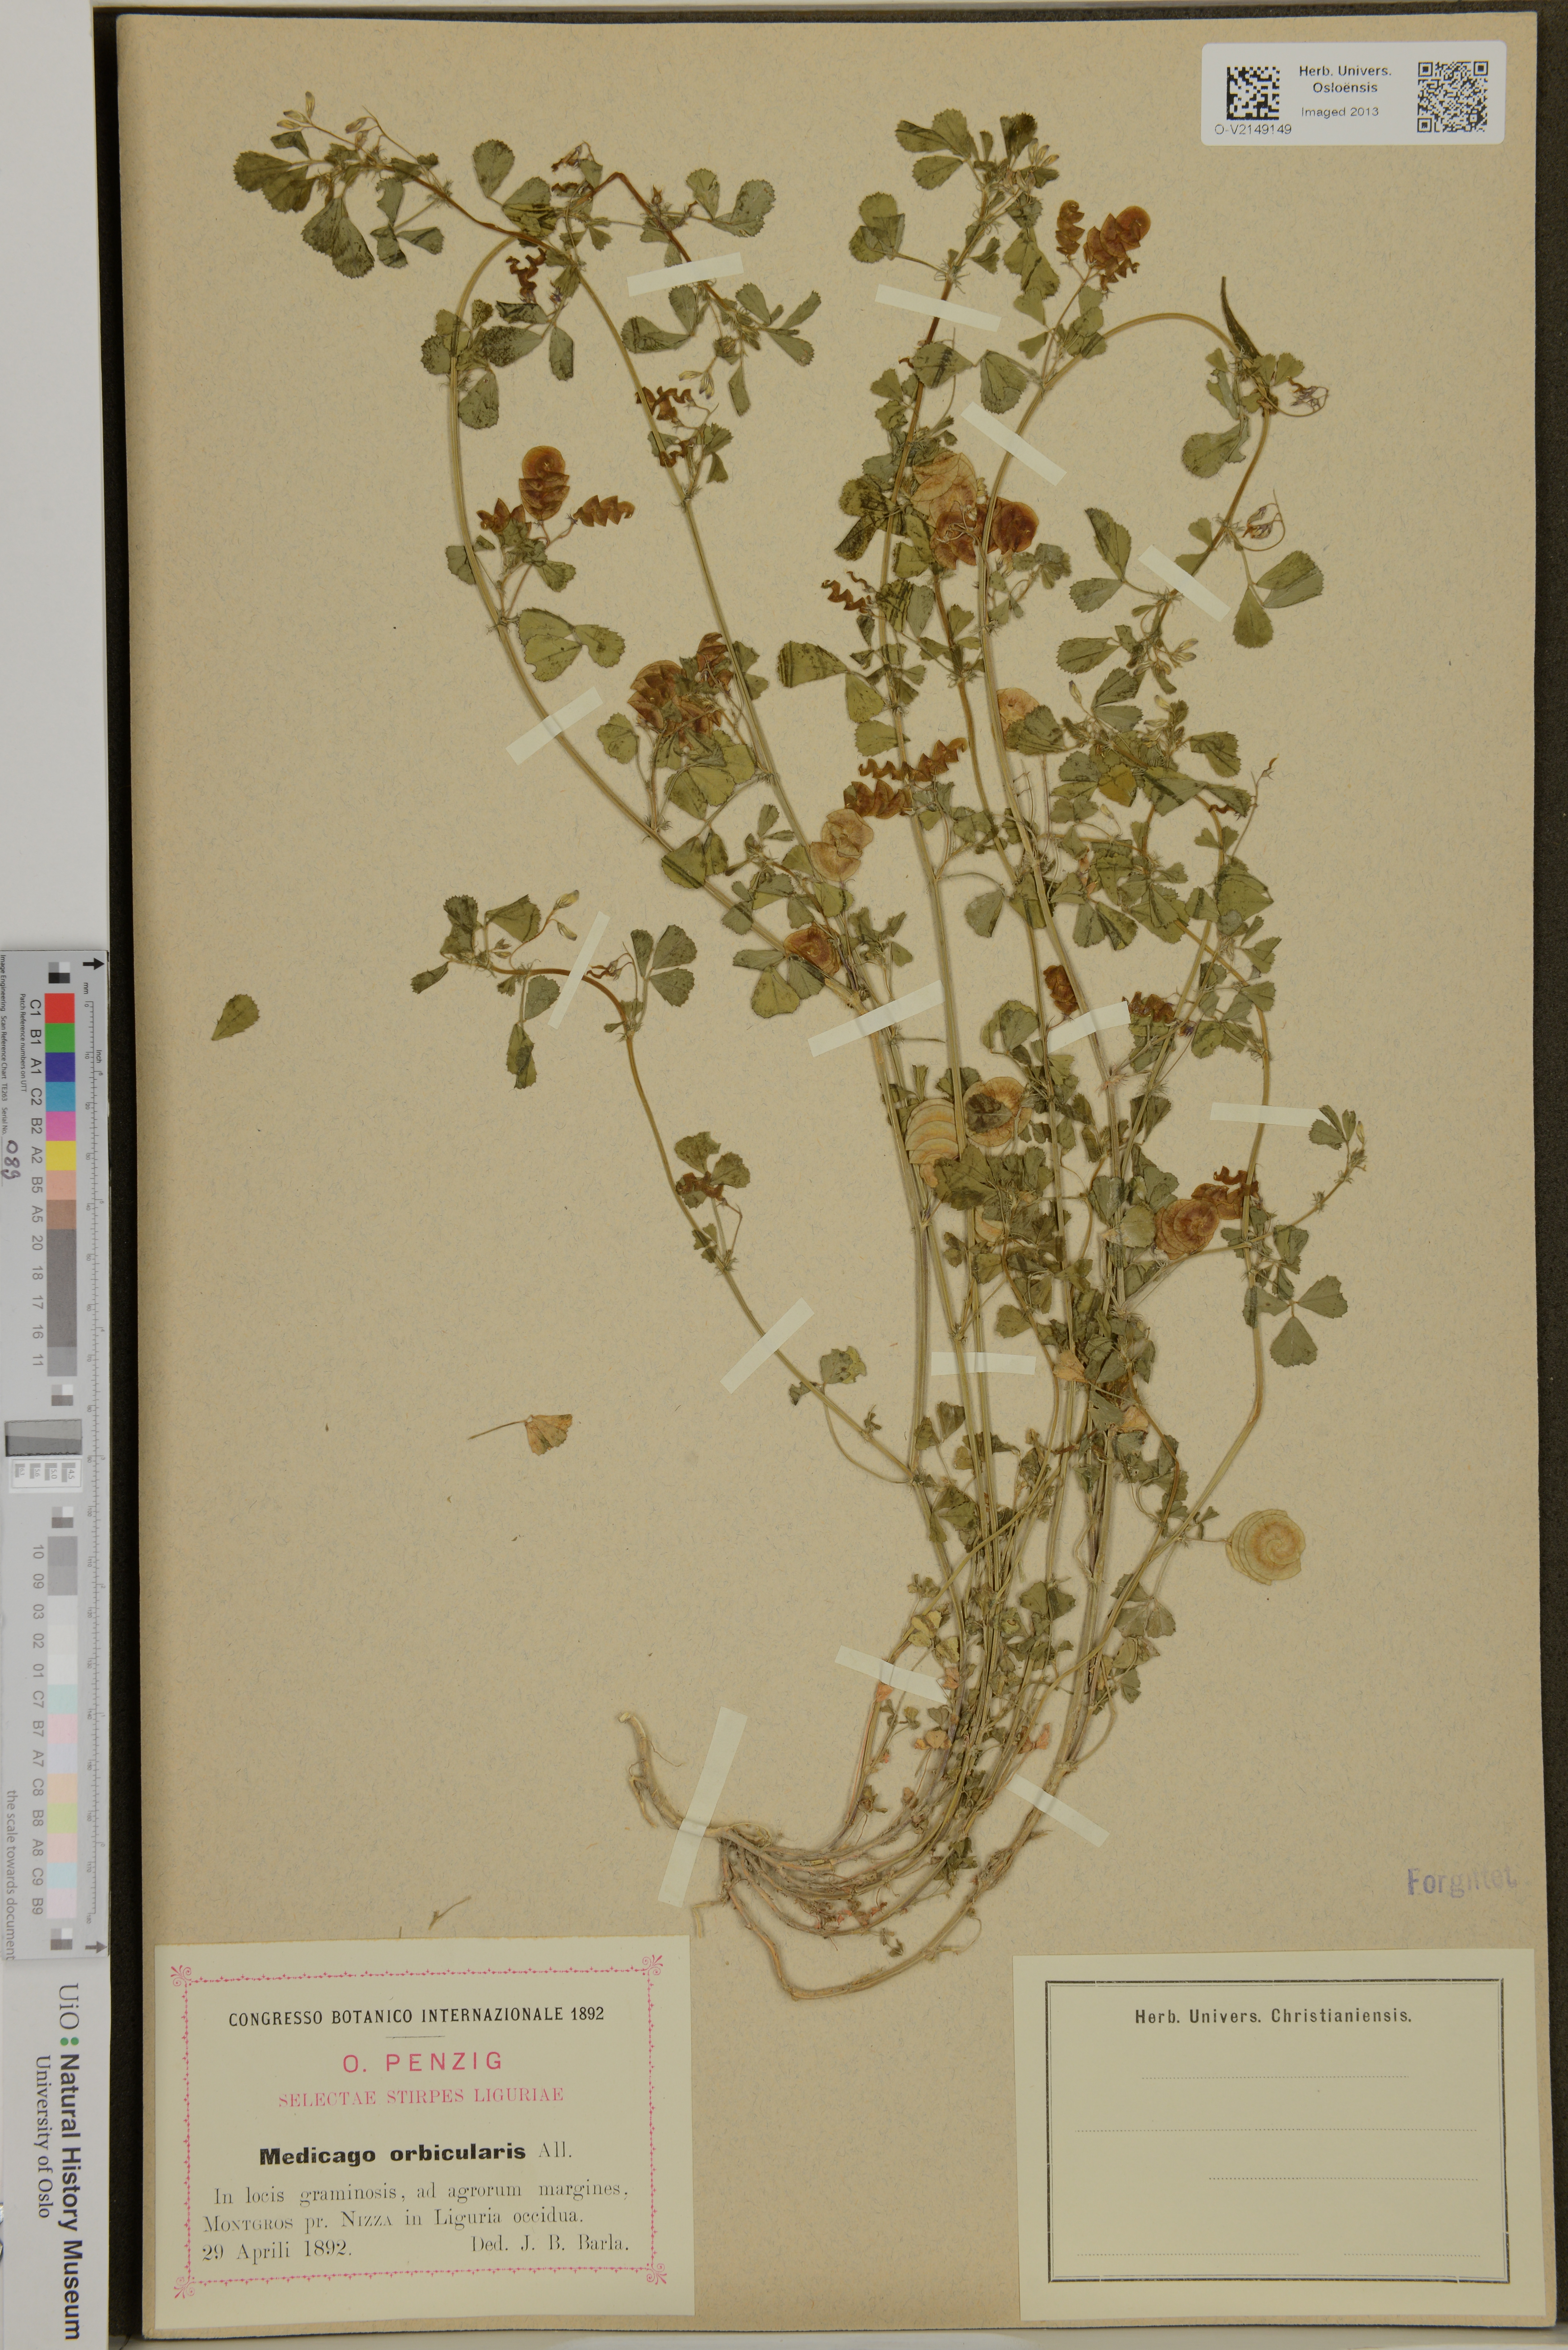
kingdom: Plantae
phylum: Tracheophyta
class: Magnoliopsida
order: Fabales
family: Fabaceae
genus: Medicago
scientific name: Medicago orbicularis
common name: Button medick
